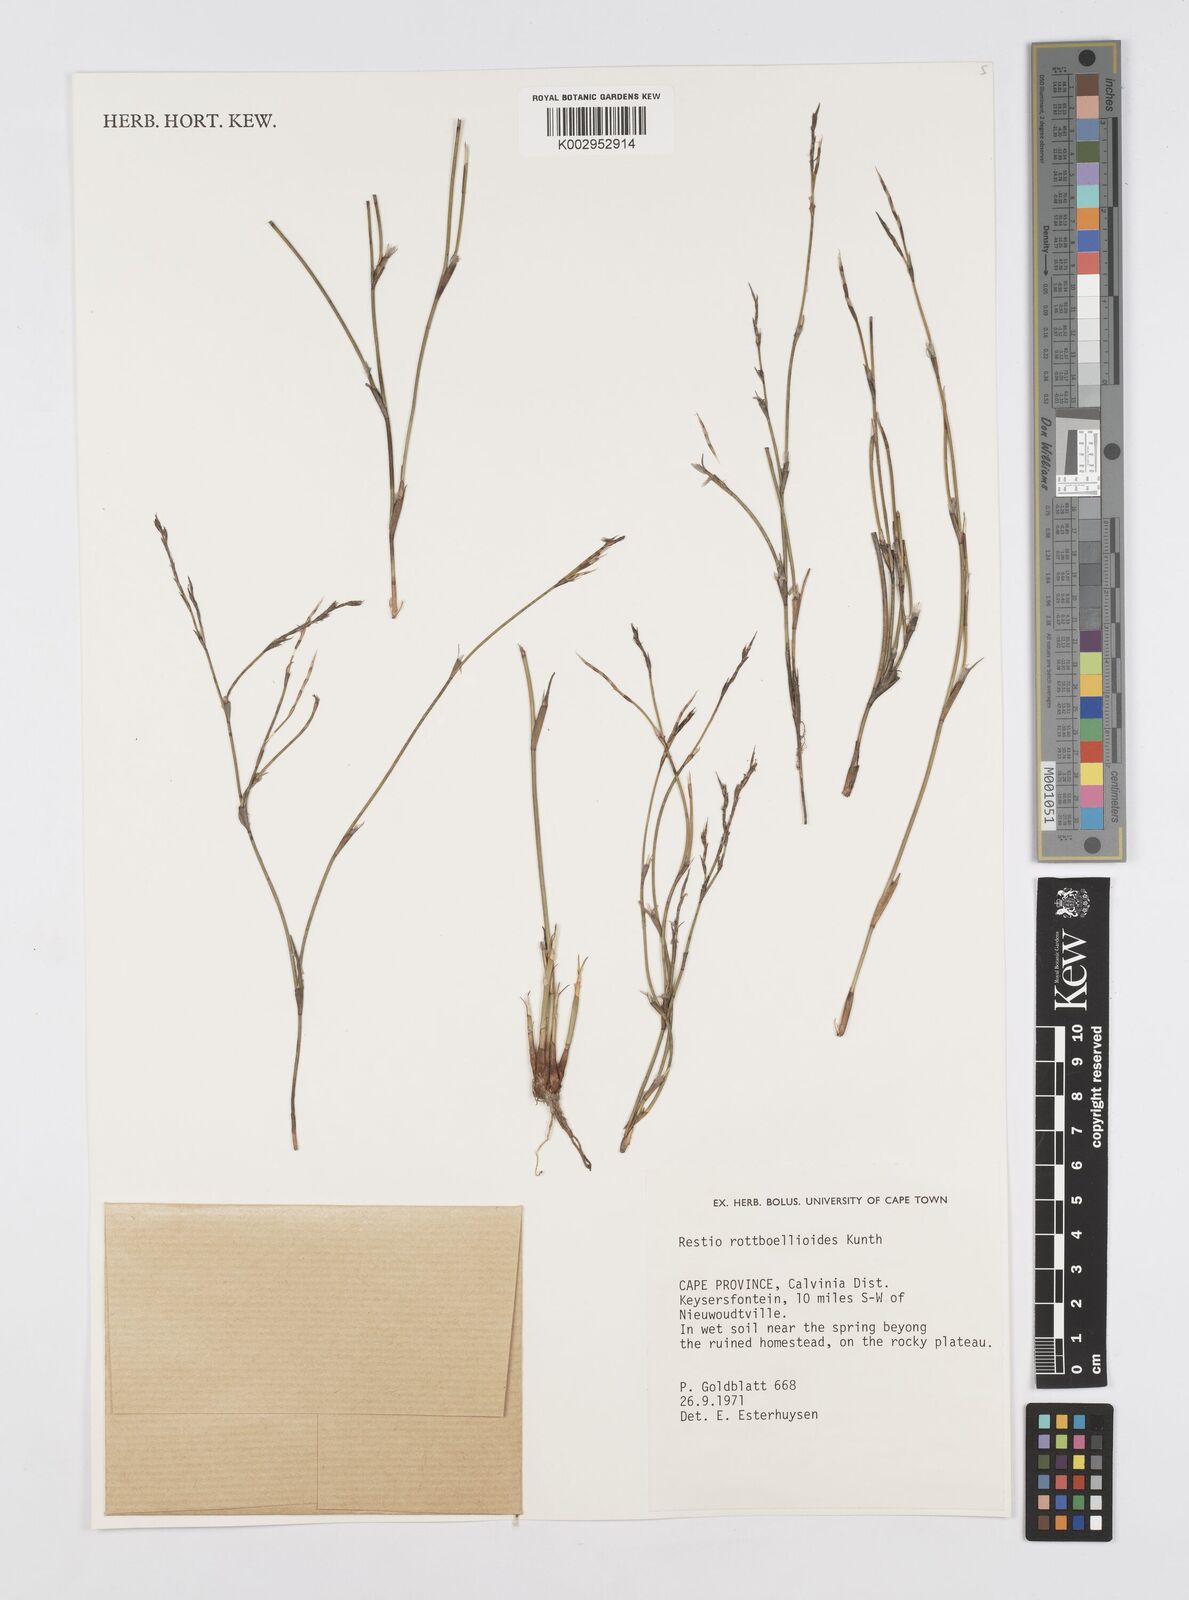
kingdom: Plantae
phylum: Tracheophyta
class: Liliopsida
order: Poales
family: Restionaceae
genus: Restio
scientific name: Restio rottboellioides
